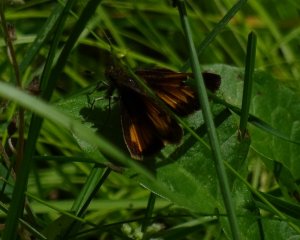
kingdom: Animalia
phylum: Arthropoda
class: Insecta
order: Lepidoptera
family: Hesperiidae
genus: Lon
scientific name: Lon hobomok
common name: Hobomok Skipper
